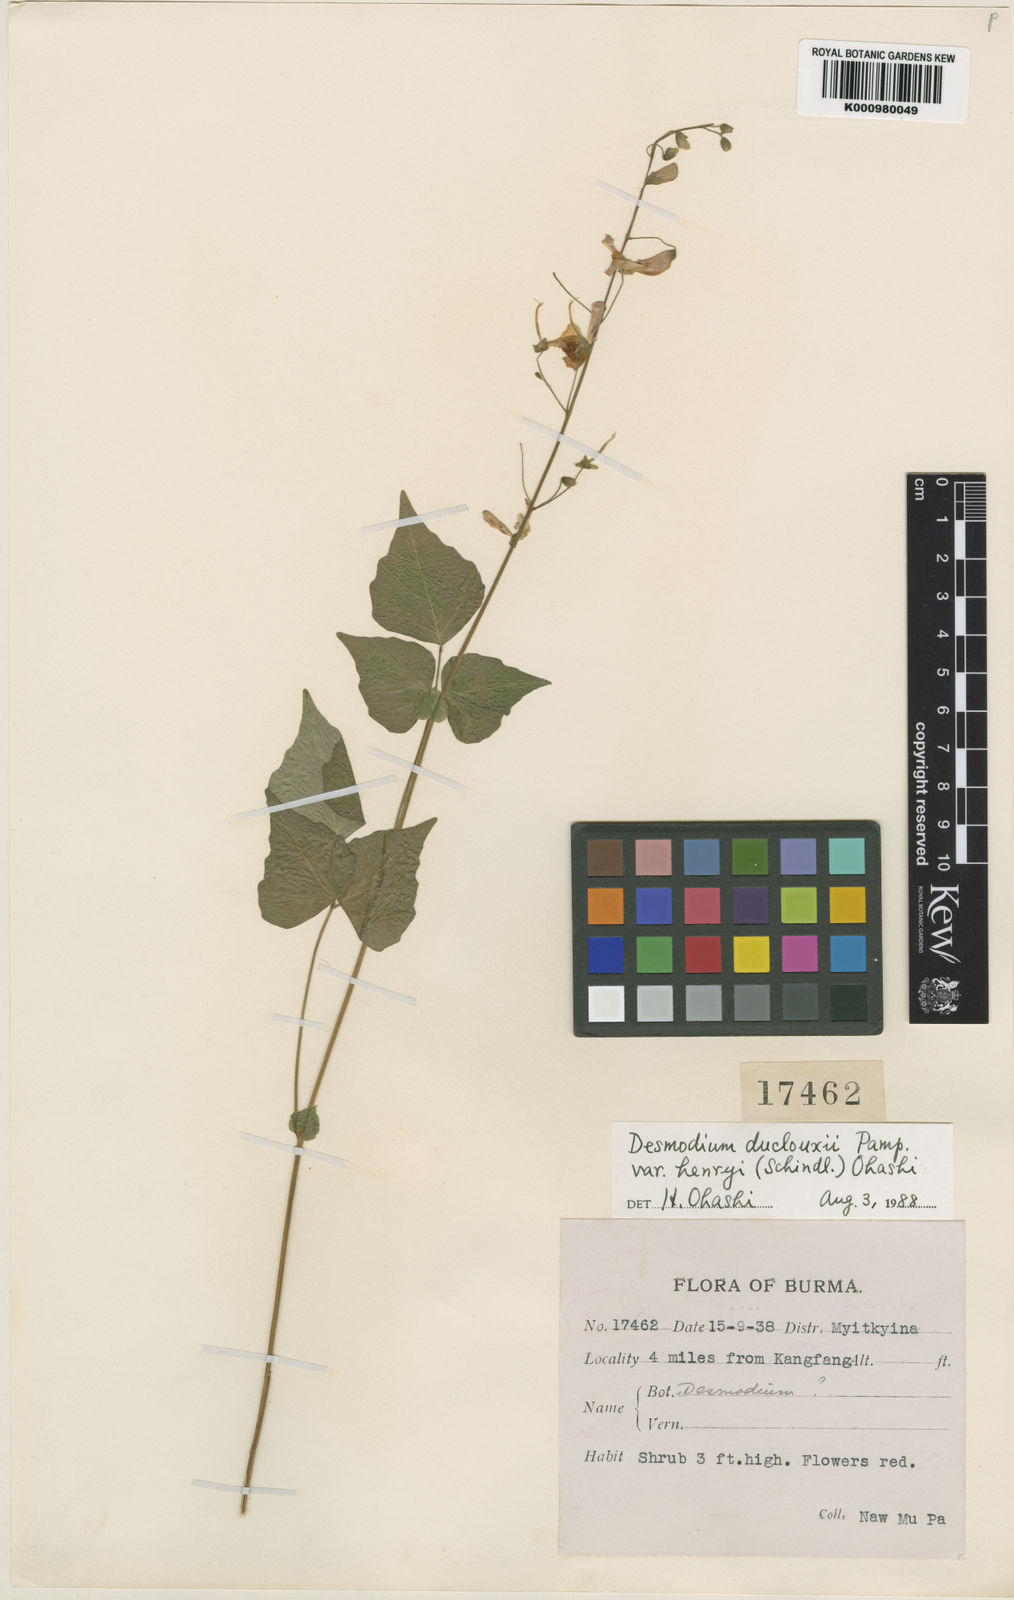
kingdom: Plantae
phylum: Tracheophyta
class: Magnoliopsida
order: Fabales
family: Fabaceae
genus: Hylodesmum
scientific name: Hylodesmum duclouxii
